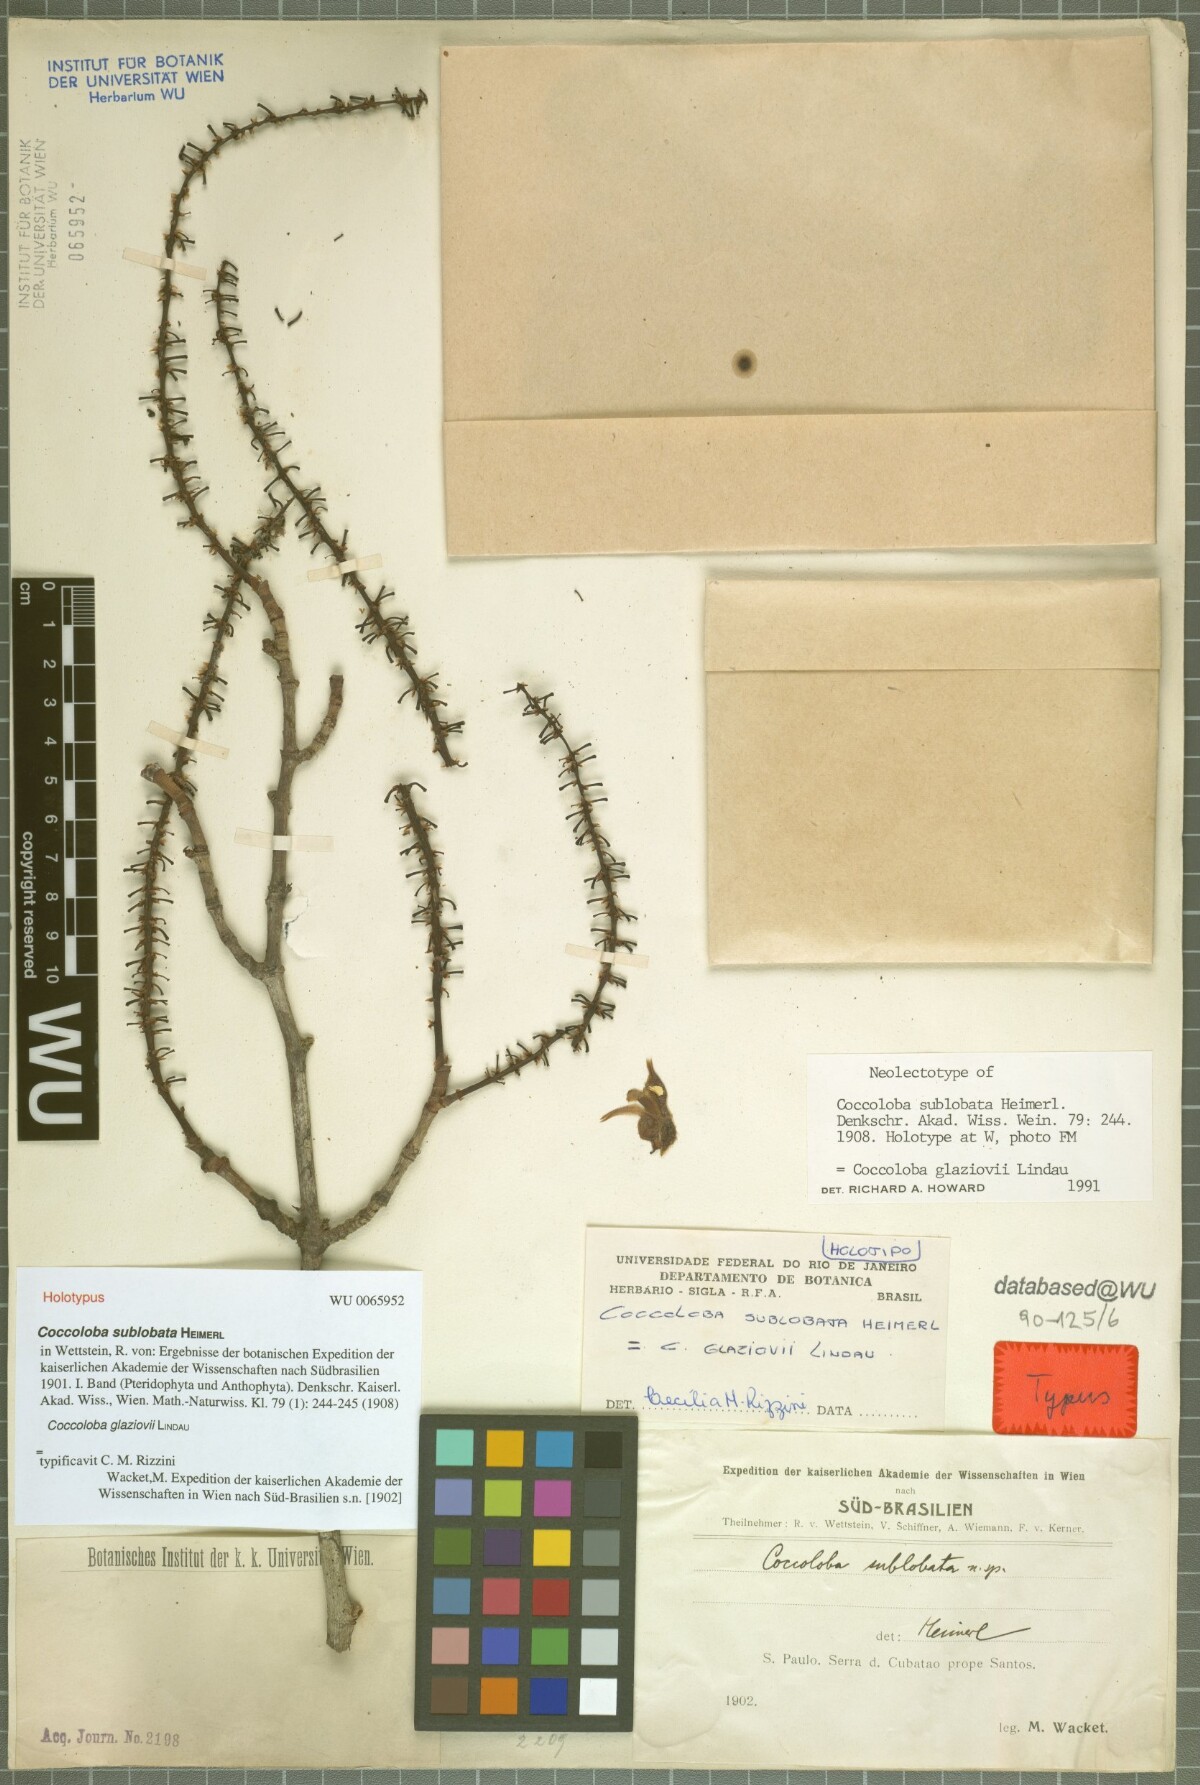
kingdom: Plantae
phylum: Tracheophyta
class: Magnoliopsida
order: Caryophyllales
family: Polygonaceae
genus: Coccoloba
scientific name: Coccoloba glaziovii
